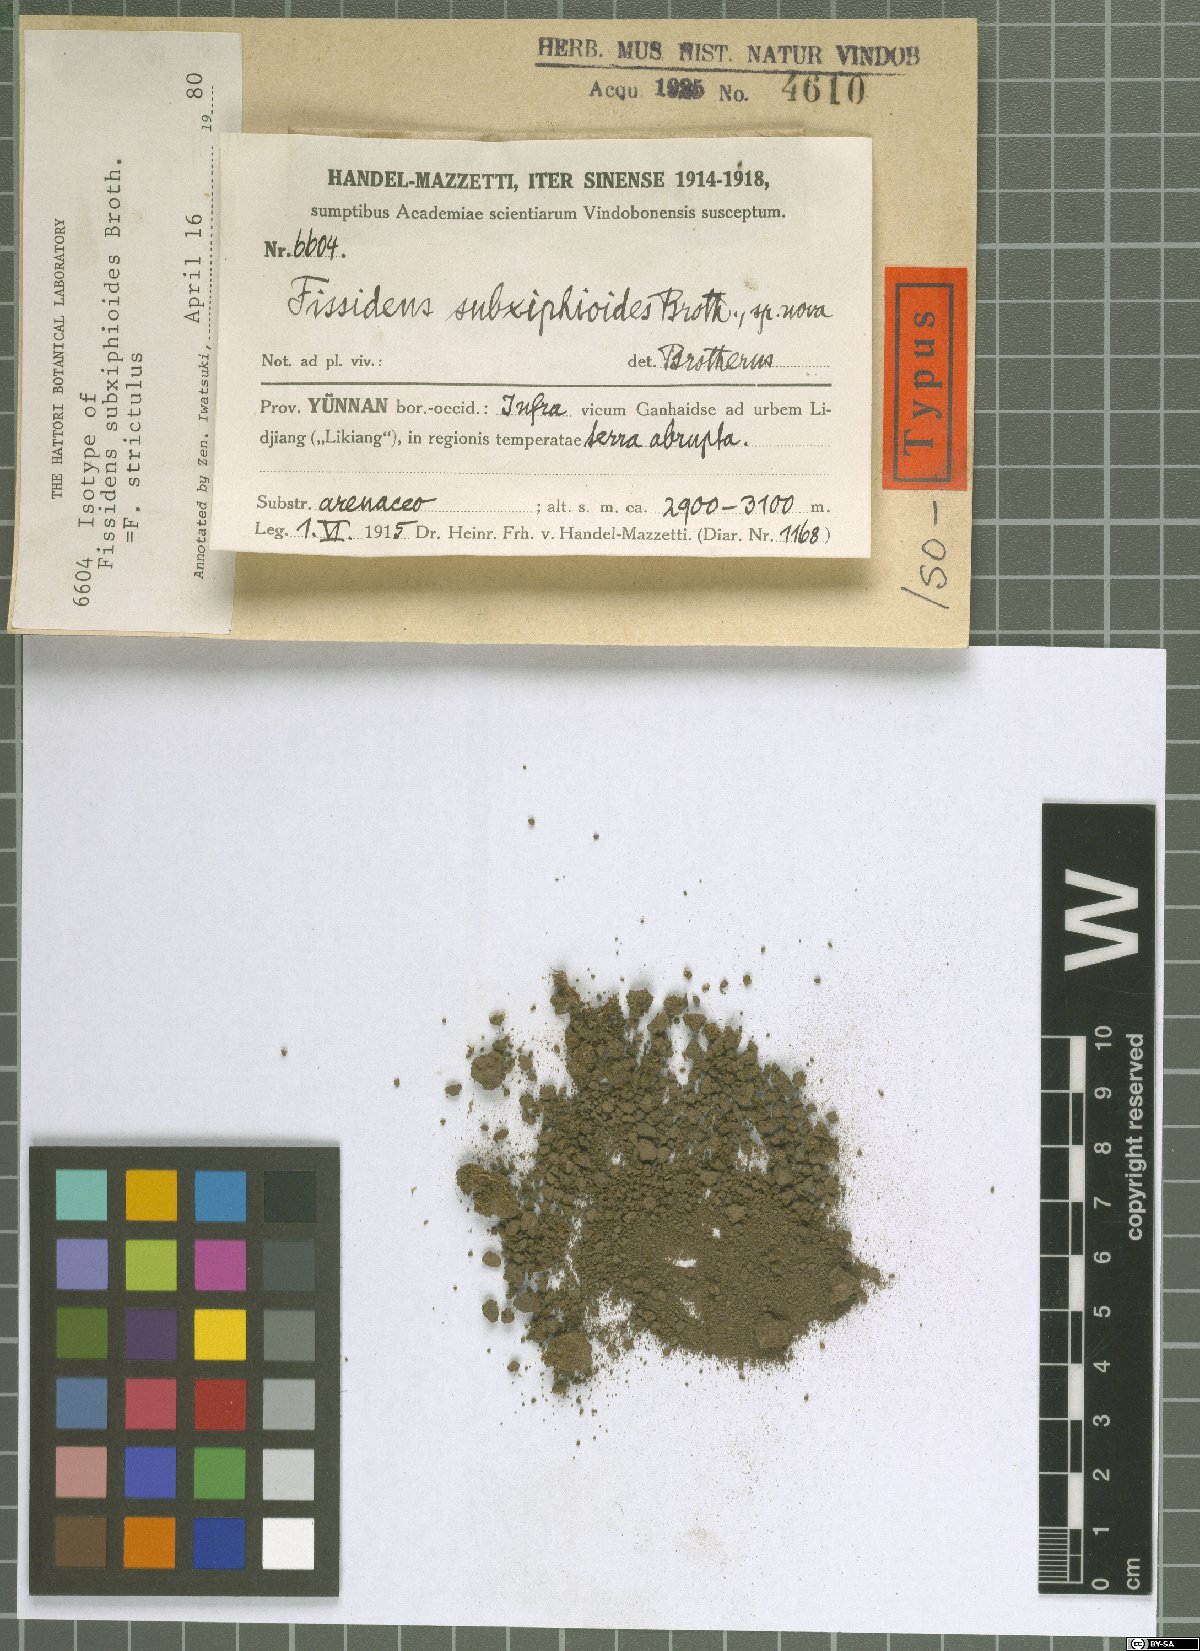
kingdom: Plantae
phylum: Bryophyta
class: Bryopsida
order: Dicranales
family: Fissidentaceae
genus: Fissidens
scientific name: Fissidens curvatus
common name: Milo's fissidens moss
